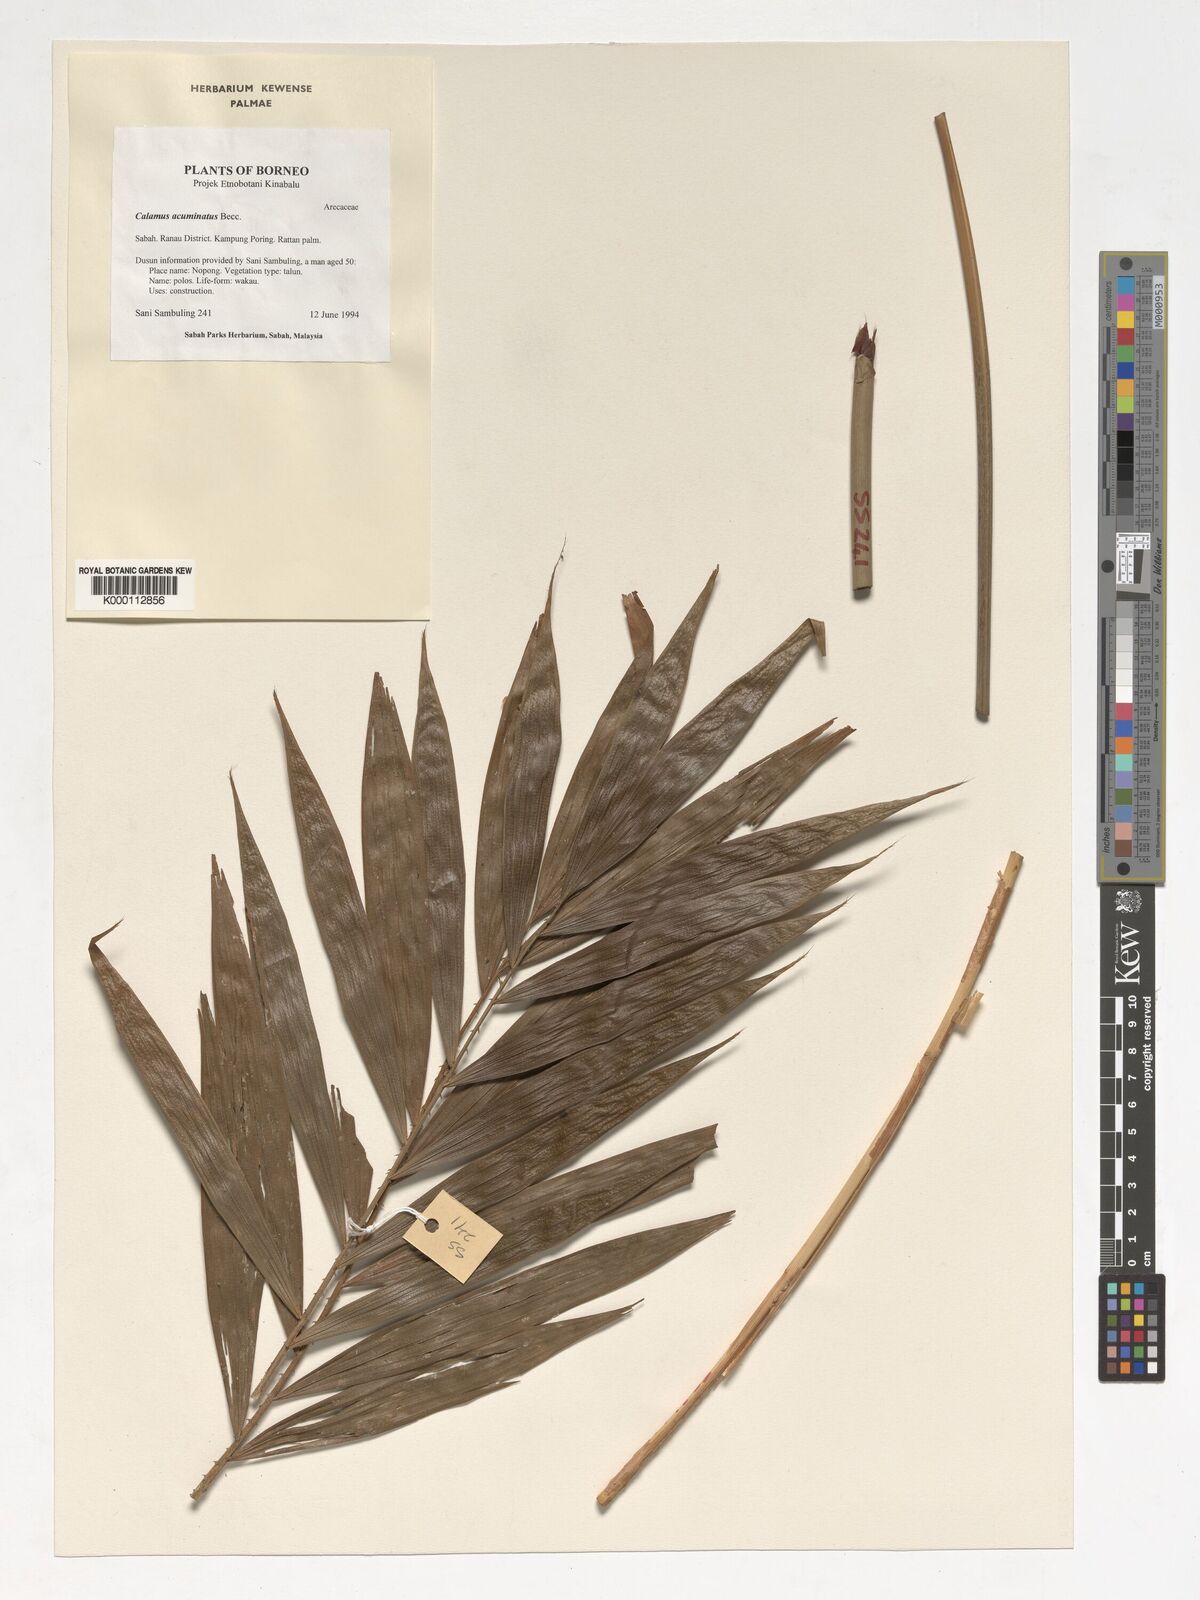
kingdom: Plantae
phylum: Tracheophyta
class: Liliopsida
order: Arecales
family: Arecaceae
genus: Calamus
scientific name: Calamus javensis
